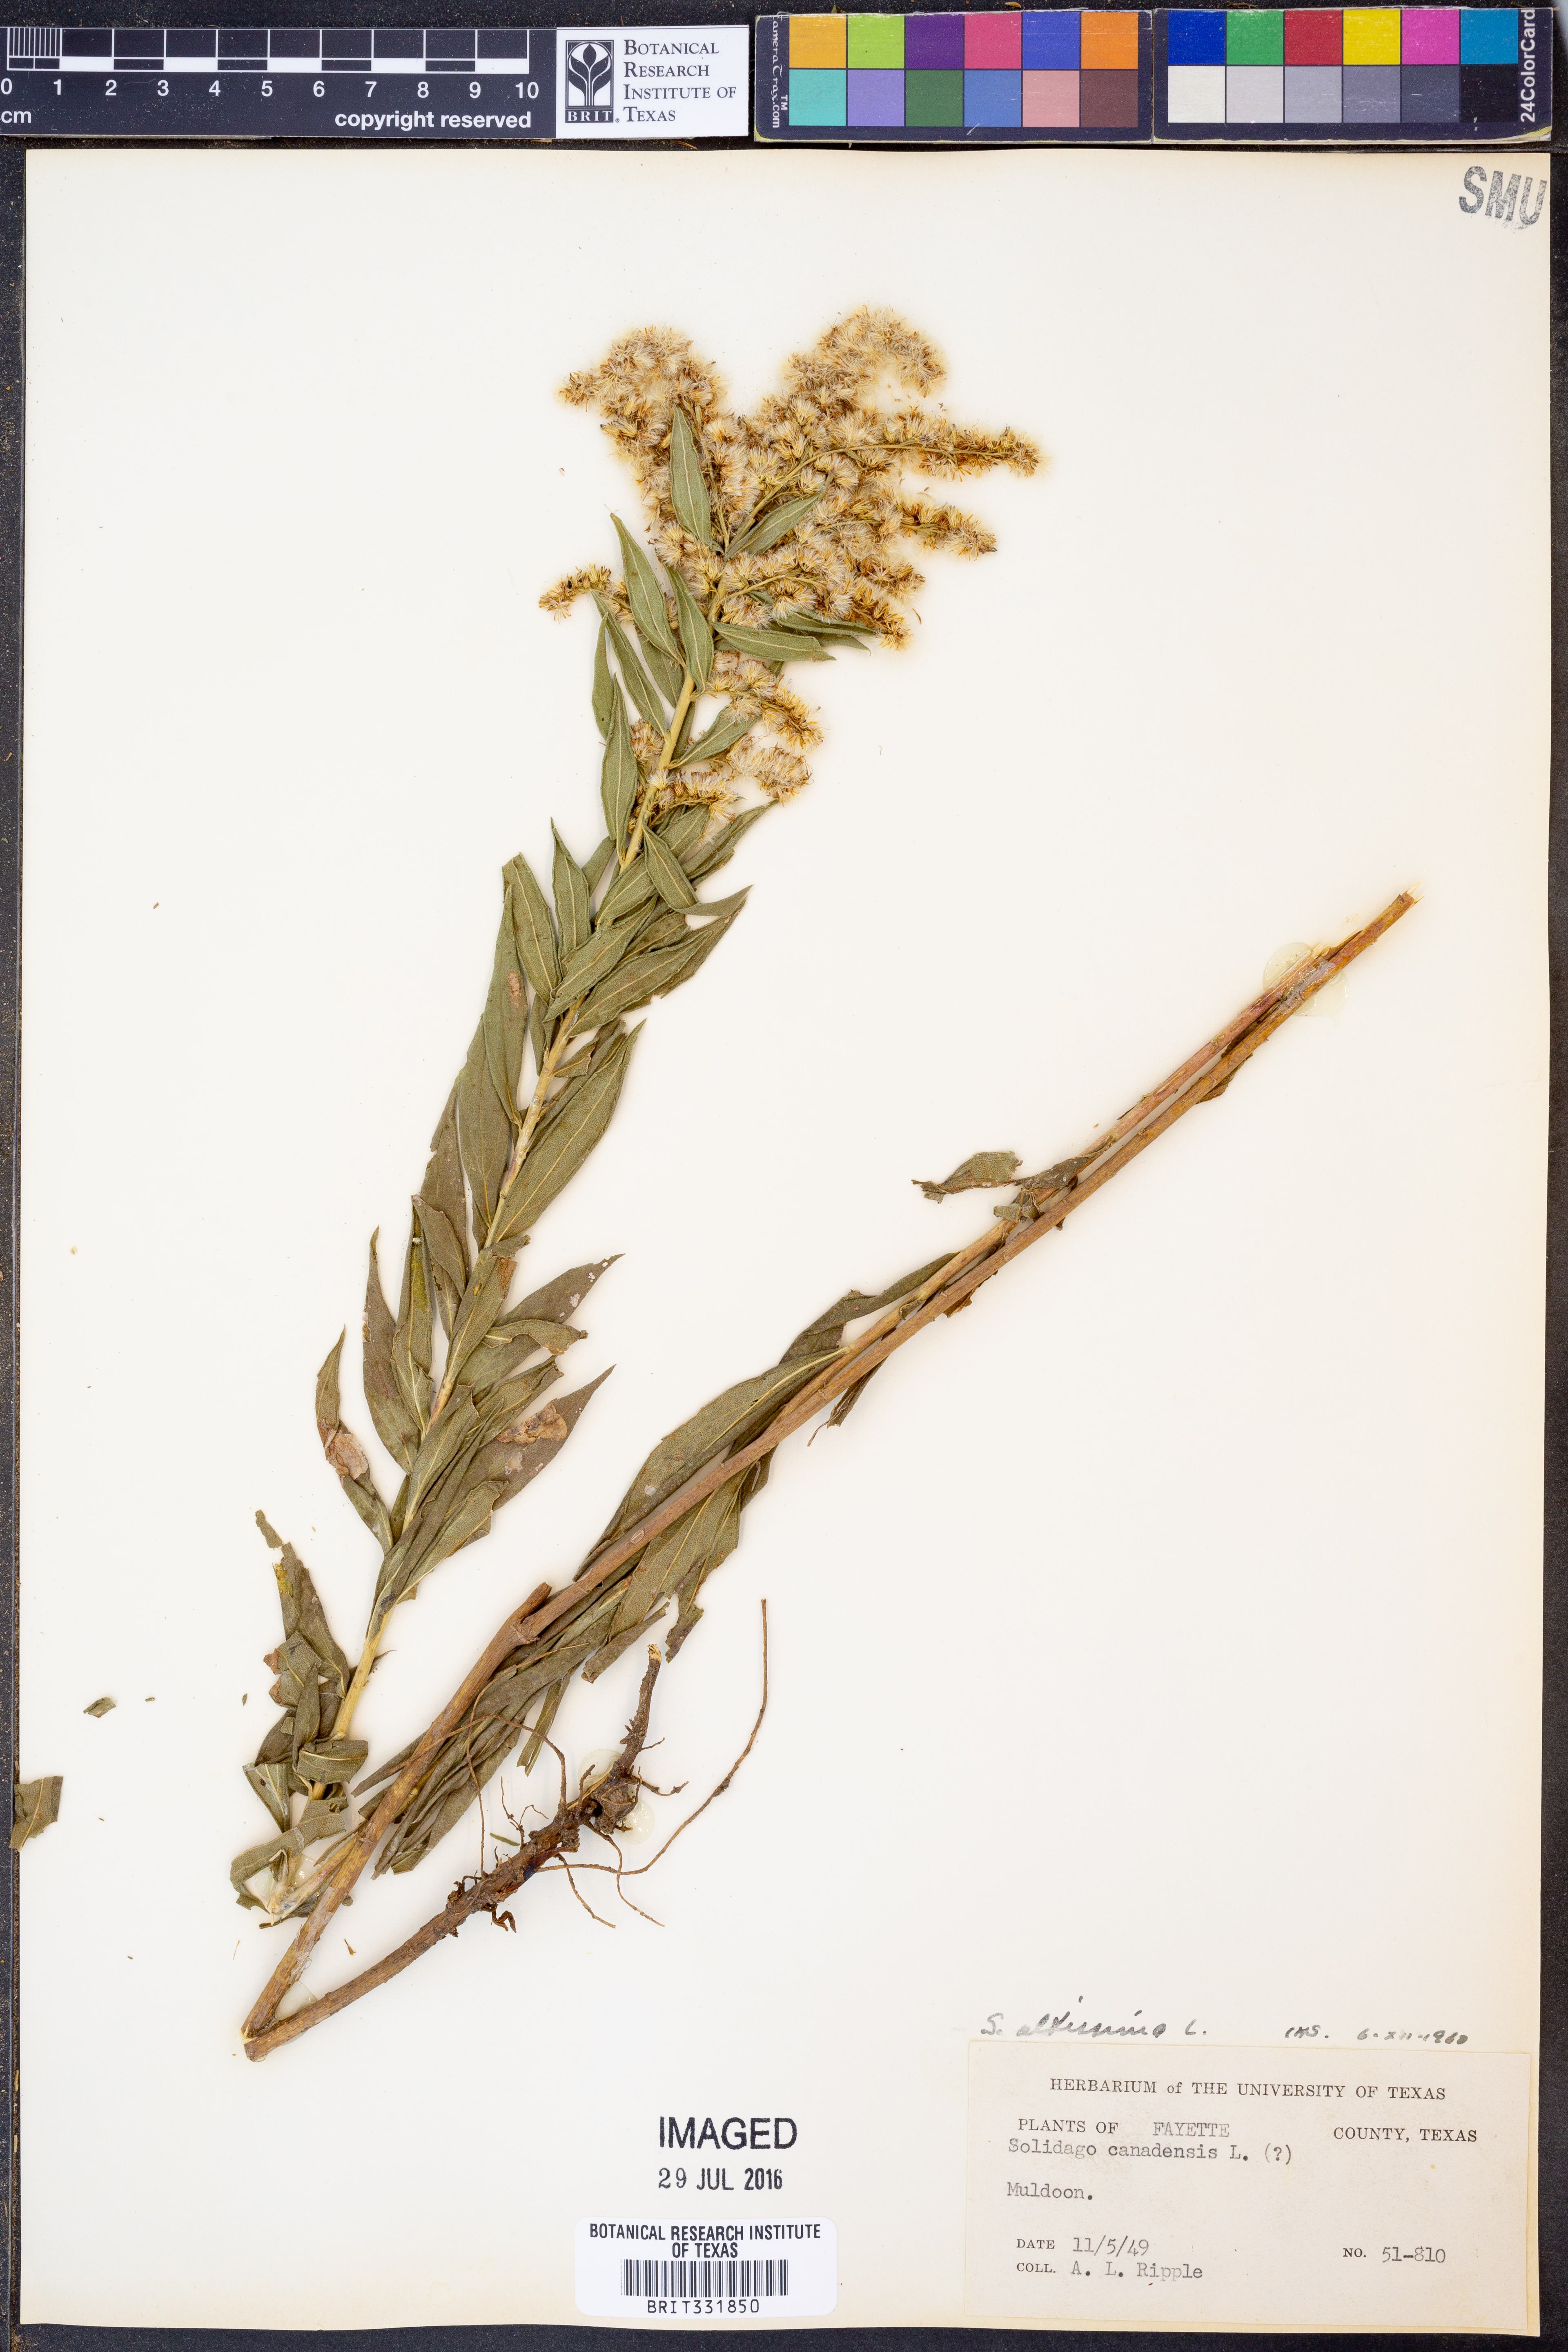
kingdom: Plantae
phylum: Tracheophyta
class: Magnoliopsida
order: Asterales
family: Asteraceae
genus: Solidago
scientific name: Solidago altissima
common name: Late goldenrod
